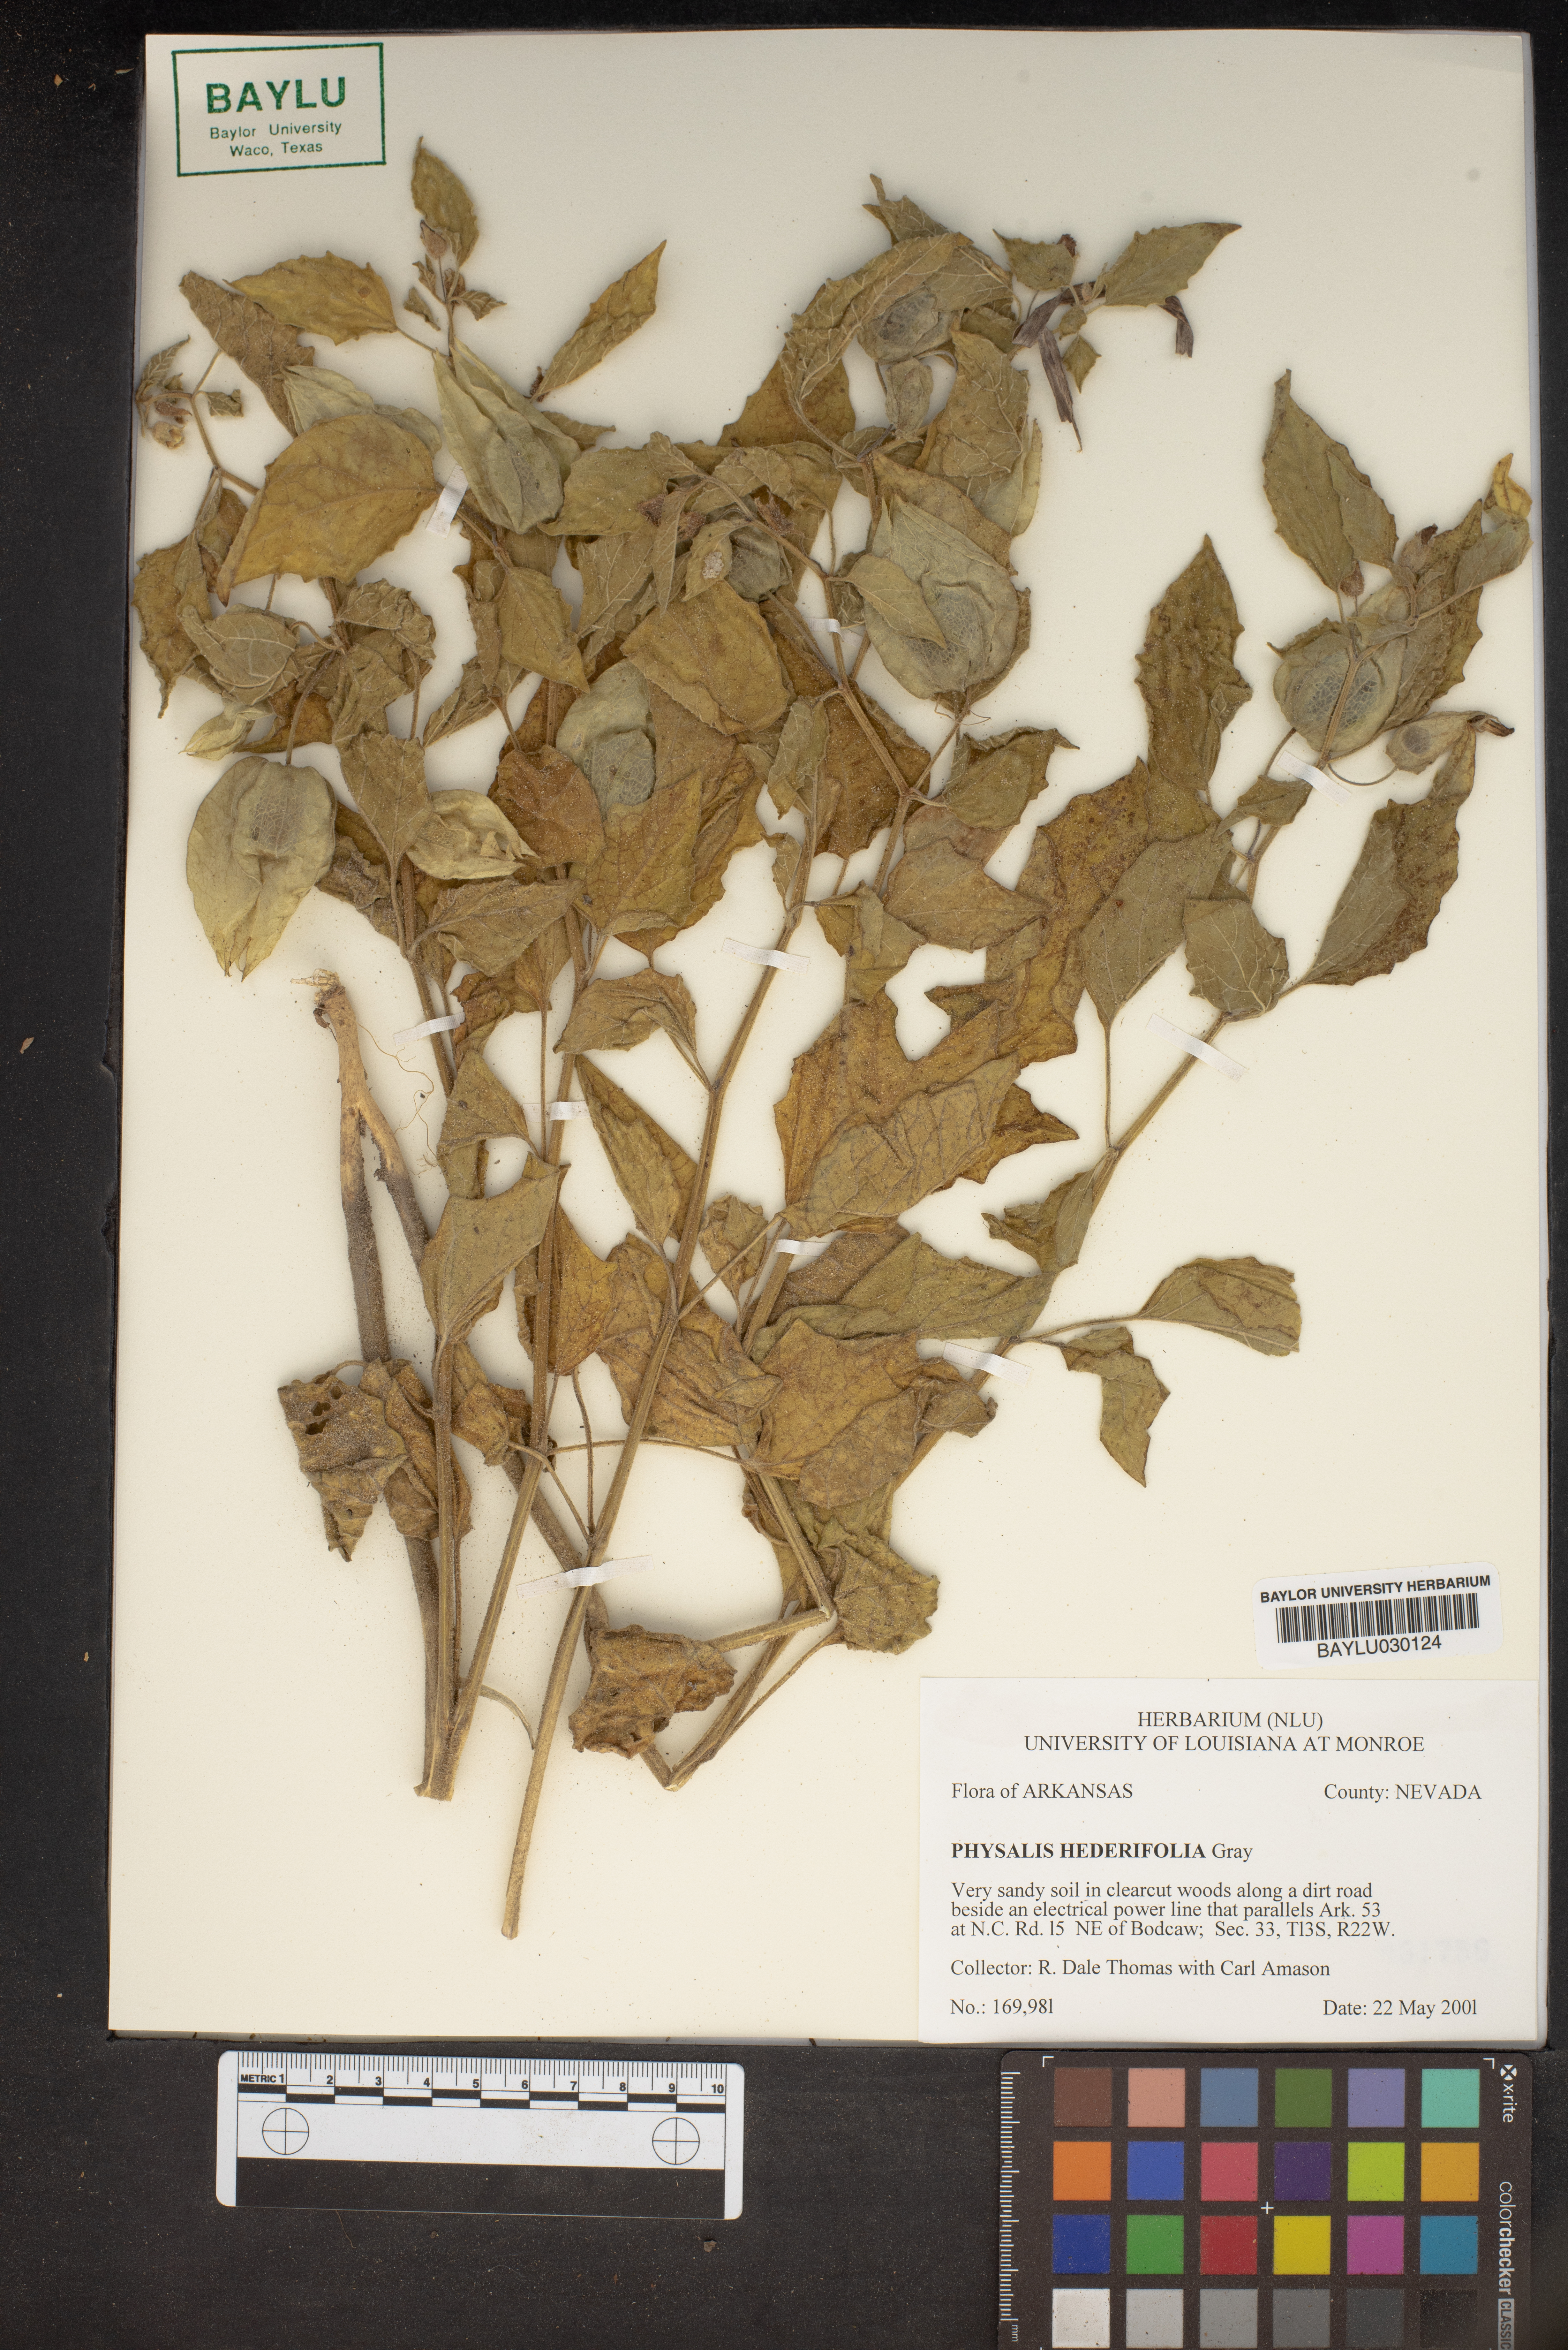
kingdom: Plantae
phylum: Tracheophyta
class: Magnoliopsida
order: Solanales
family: Solanaceae
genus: Physalis
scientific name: Physalis hederifolia
